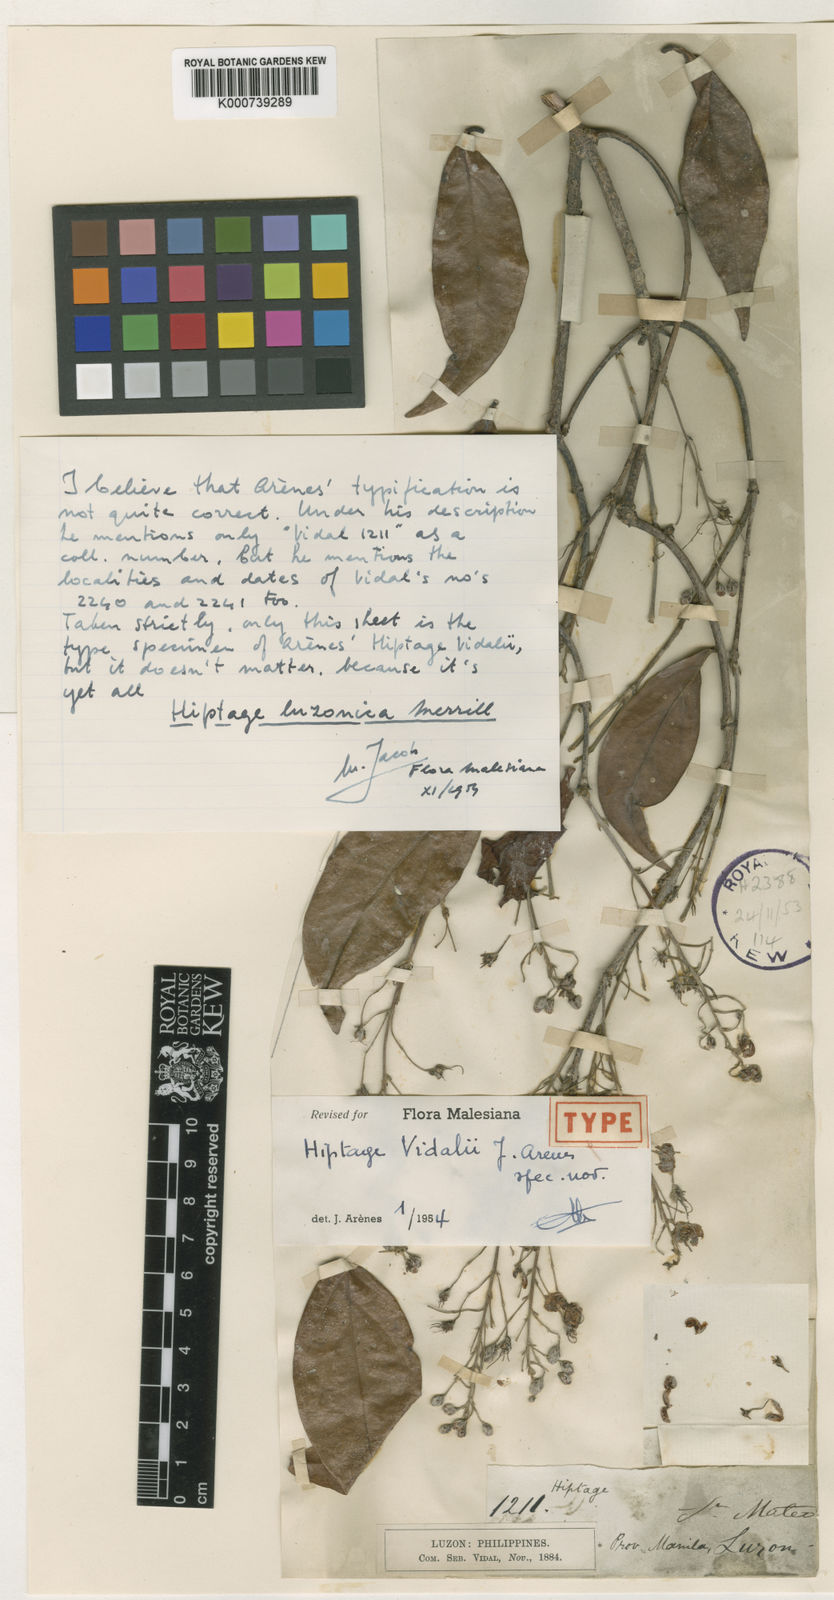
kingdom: Plantae
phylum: Tracheophyta
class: Magnoliopsida
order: Malpighiales
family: Malpighiaceae
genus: Hiptage
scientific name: Hiptage luzonica
